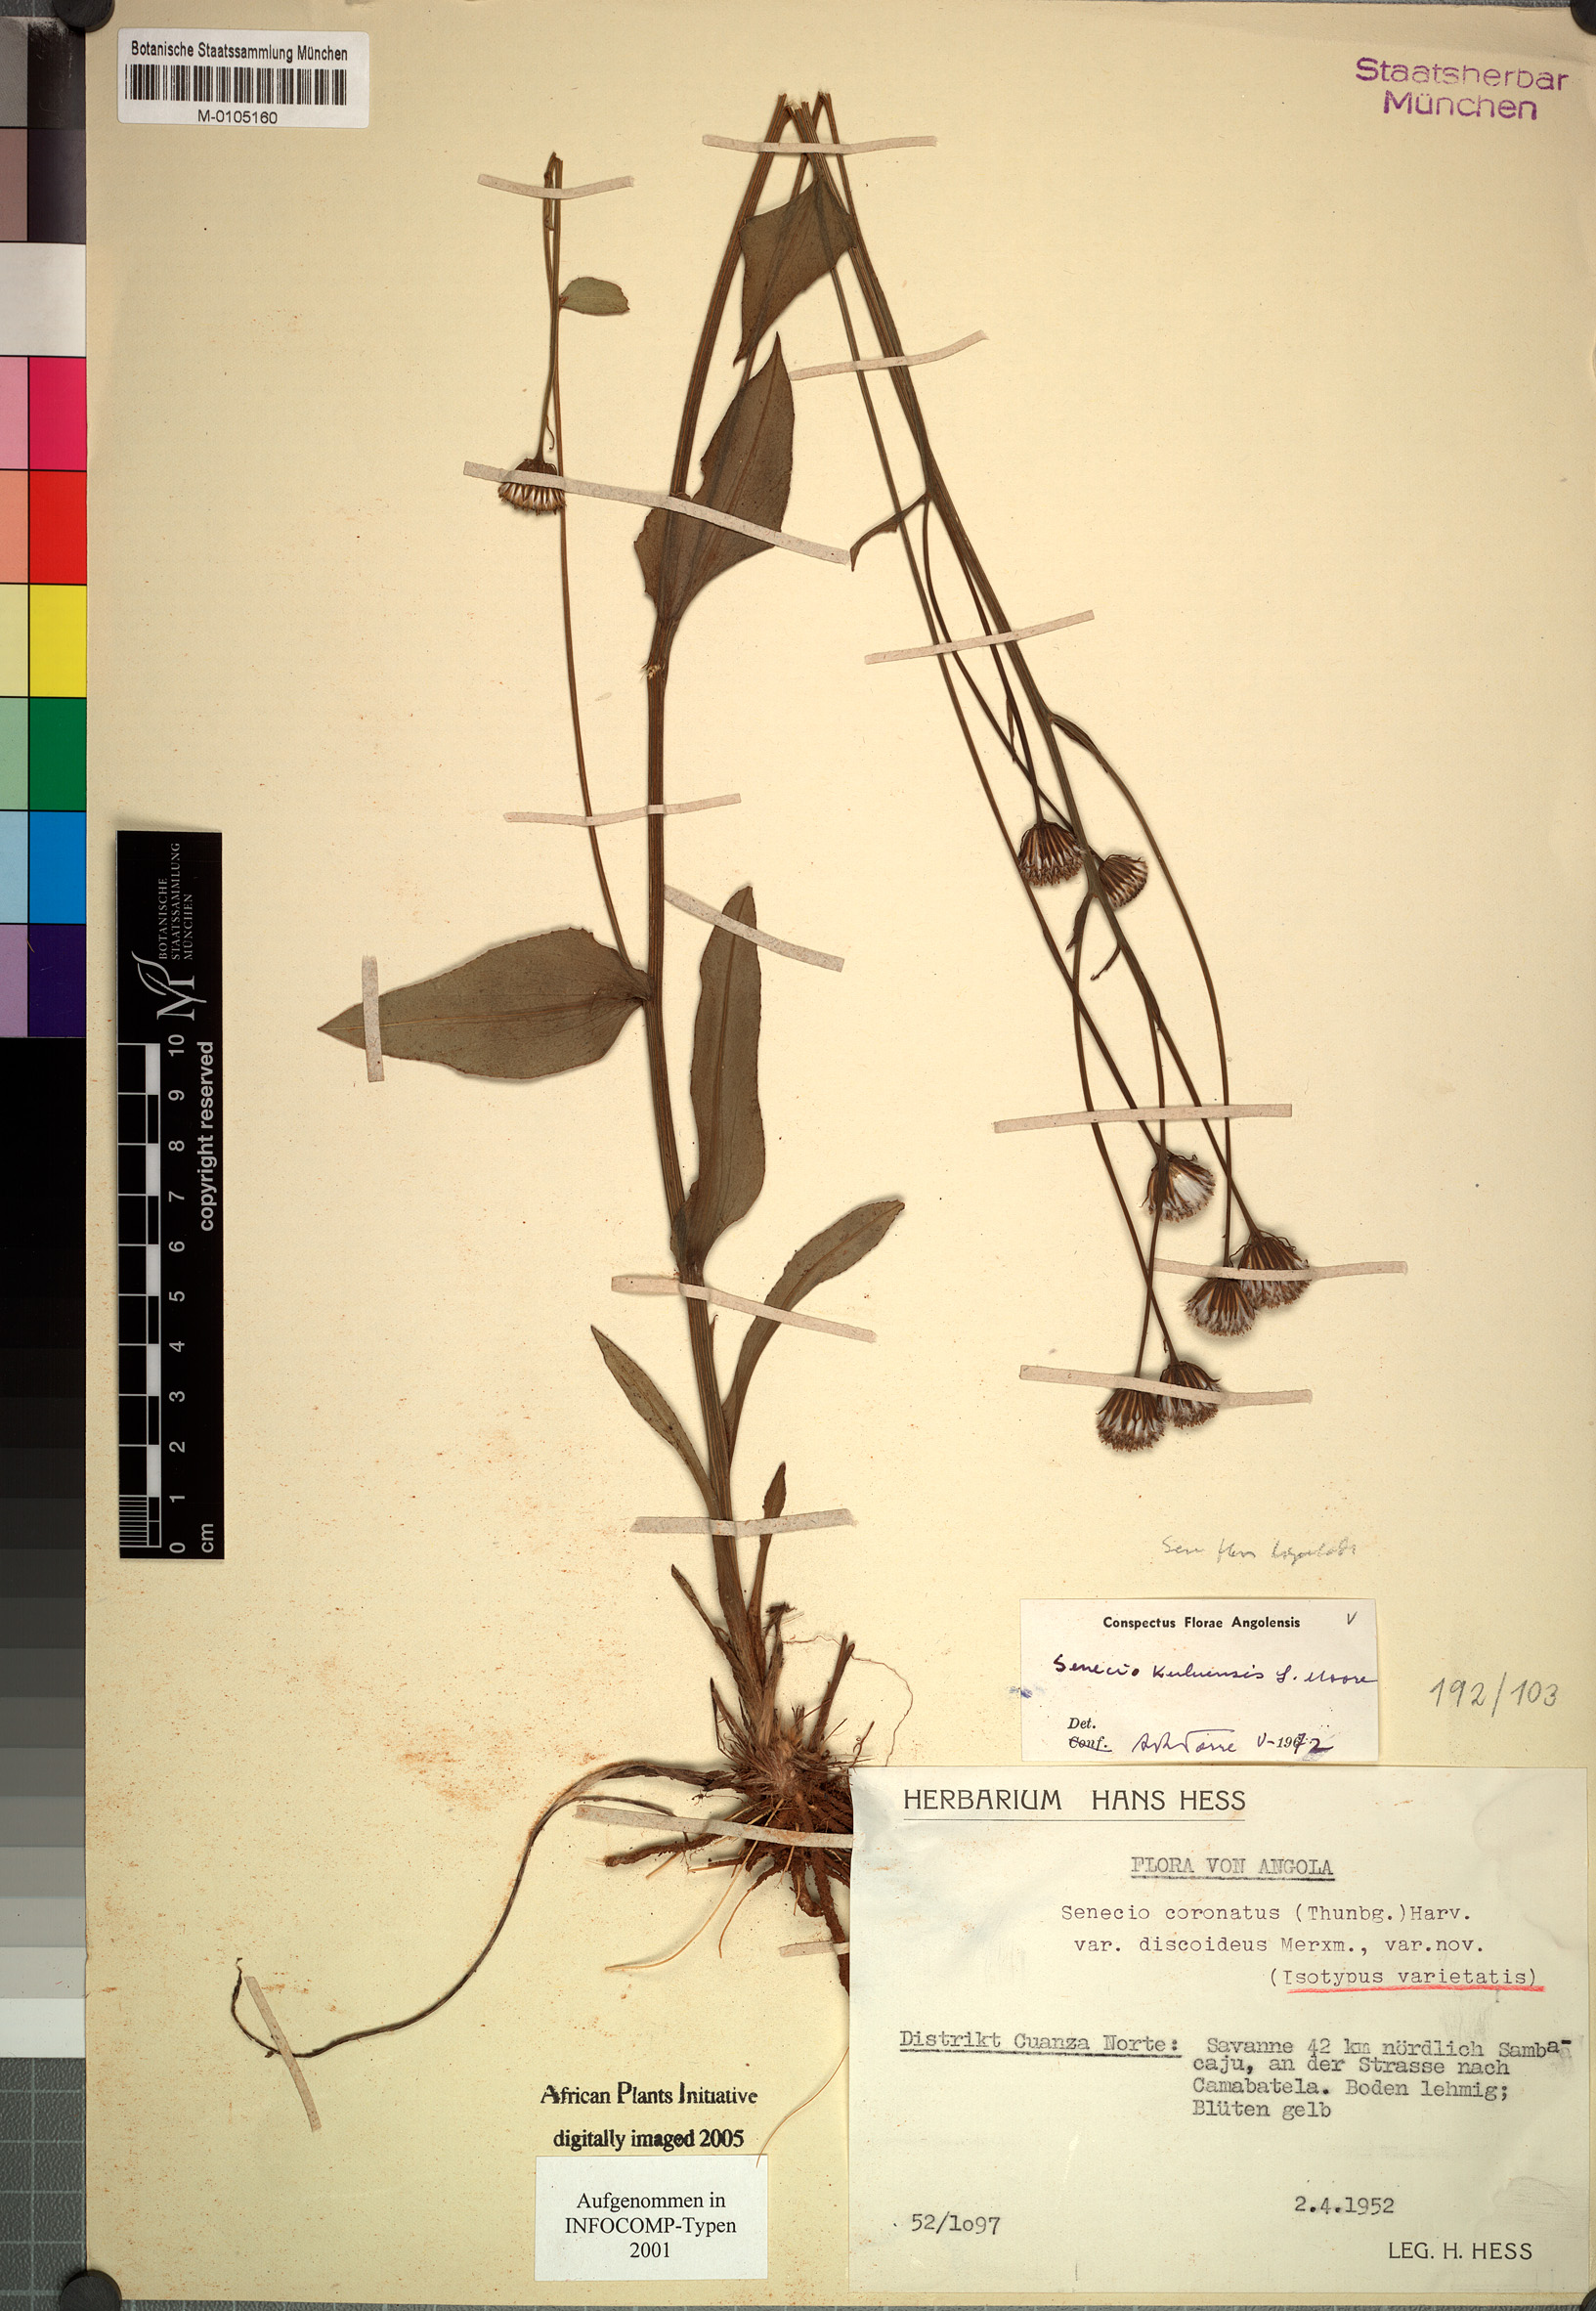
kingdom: Plantae
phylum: Tracheophyta
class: Magnoliopsida
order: Asterales
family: Asteraceae
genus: Senecio
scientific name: Senecio kuluensis
